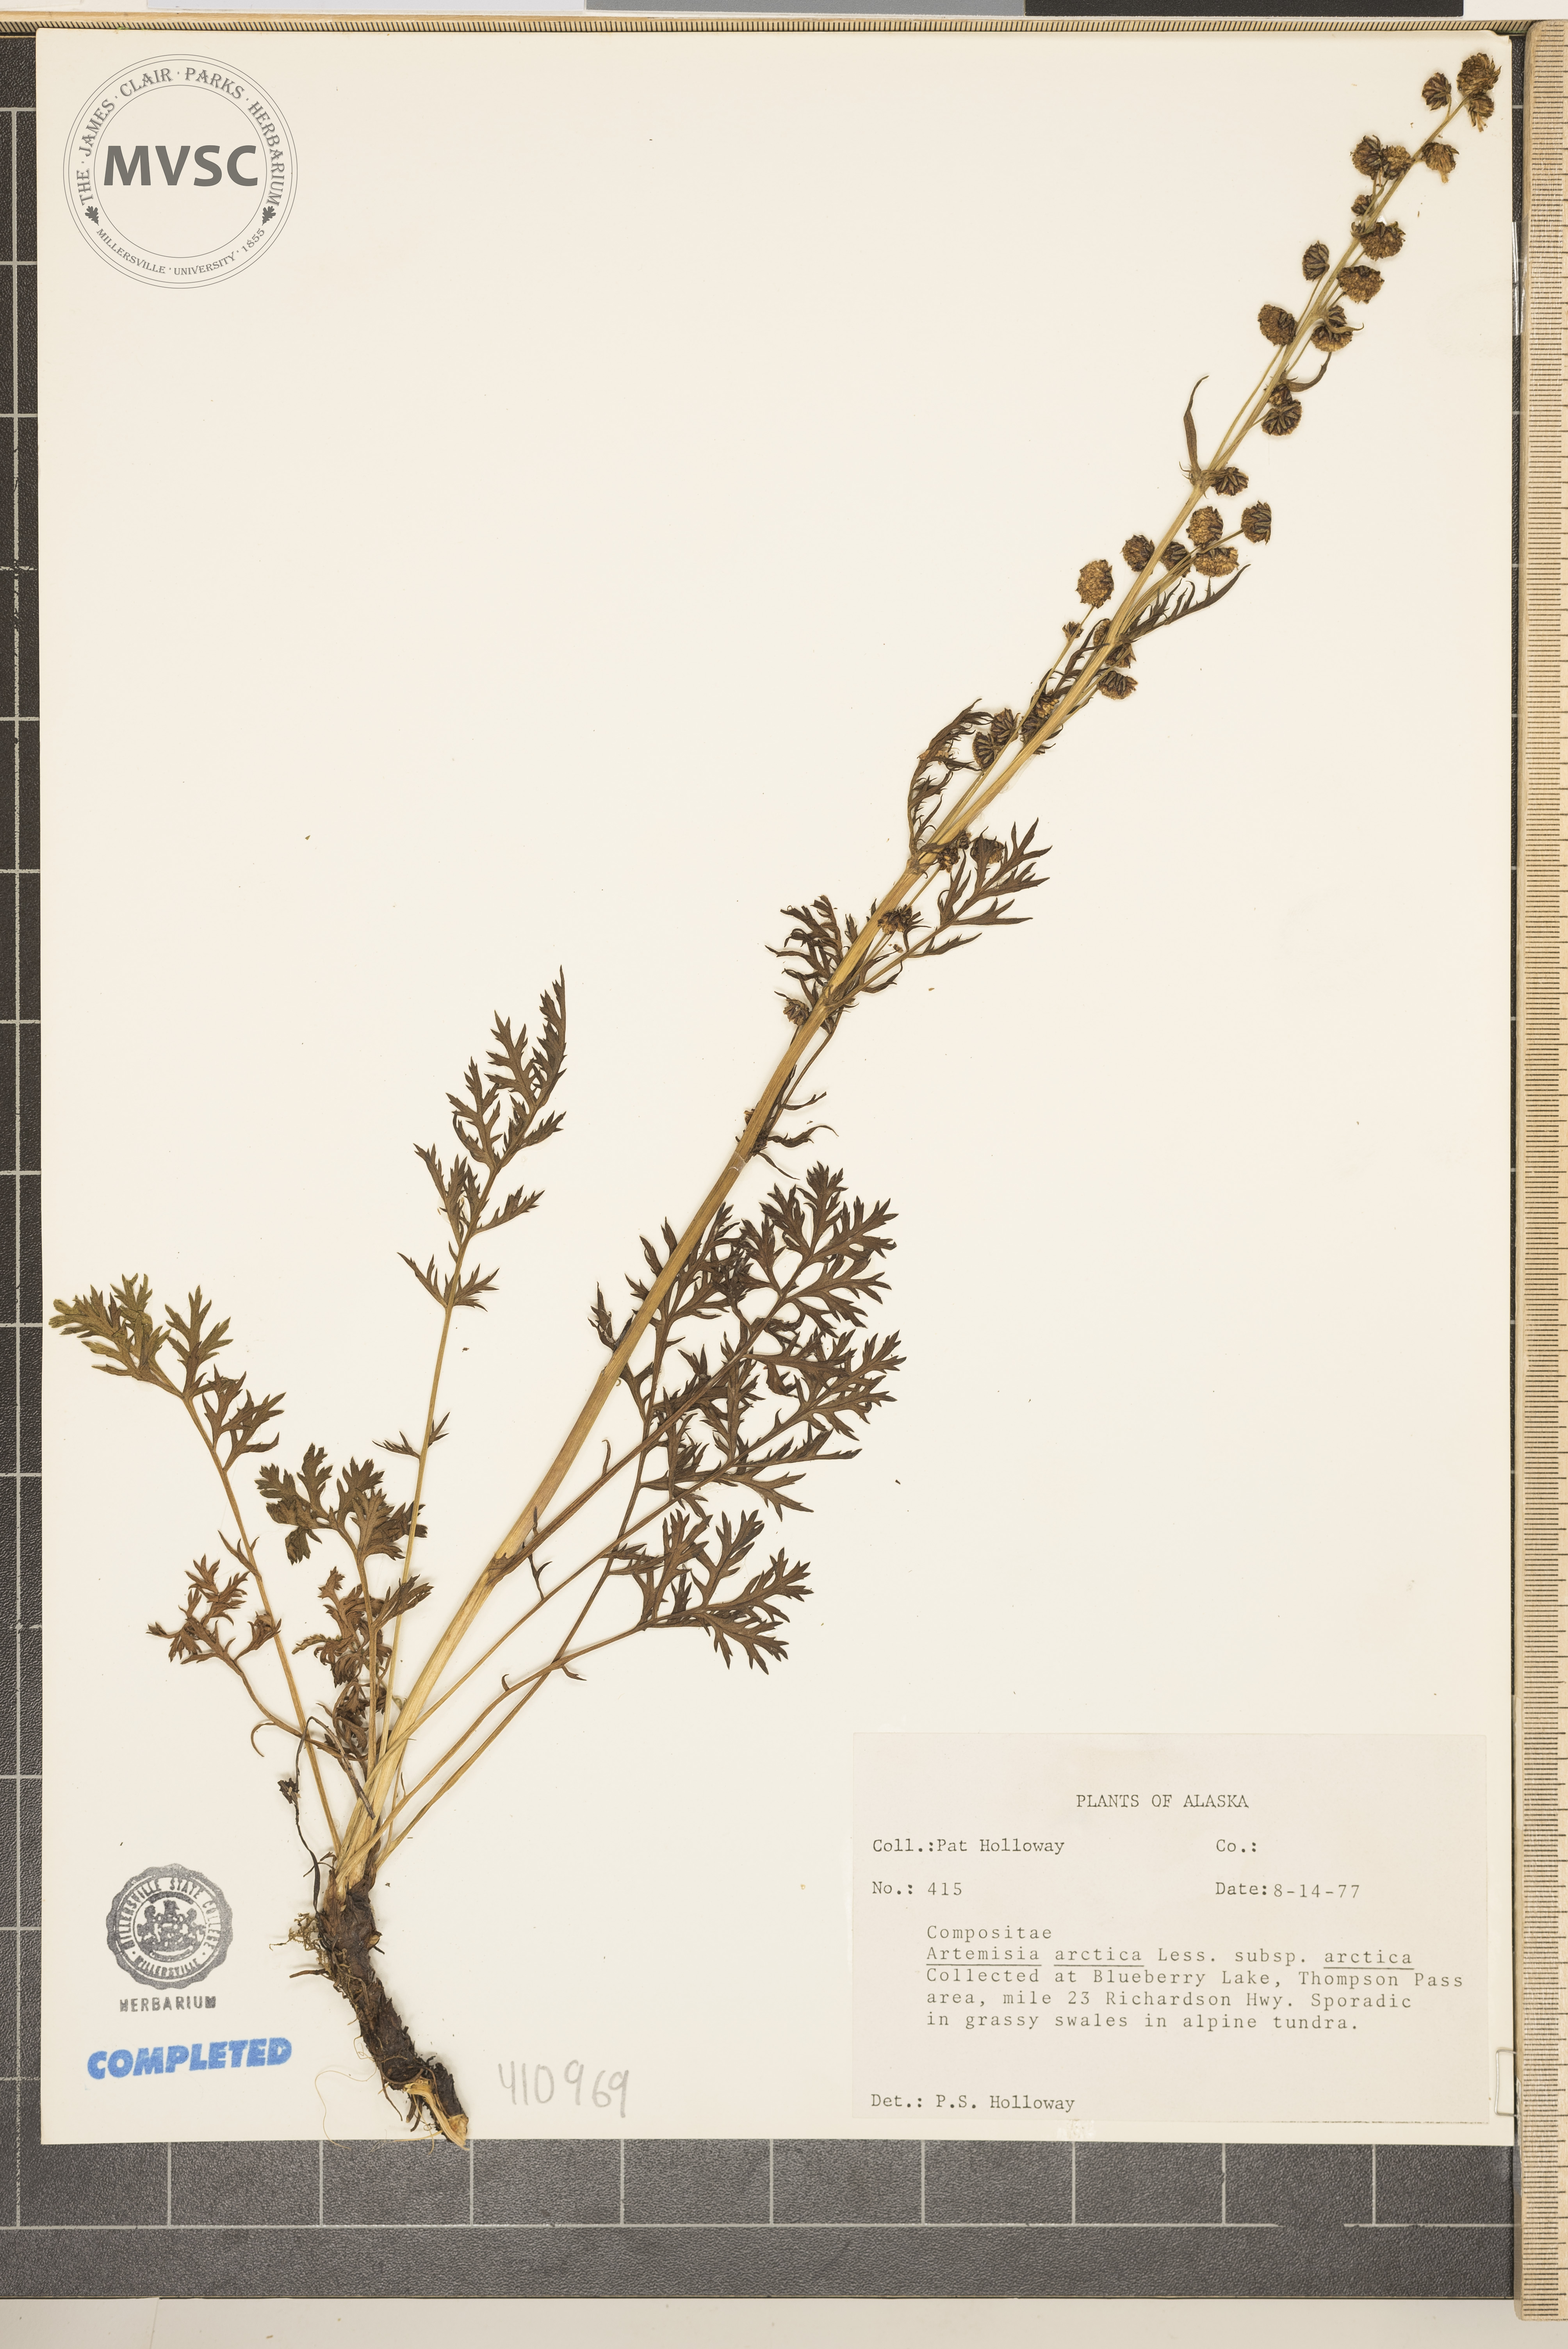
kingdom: Plantae
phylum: Tracheophyta
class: Magnoliopsida
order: Asterales
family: Asteraceae
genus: Artemisia
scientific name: Artemisia arctica
